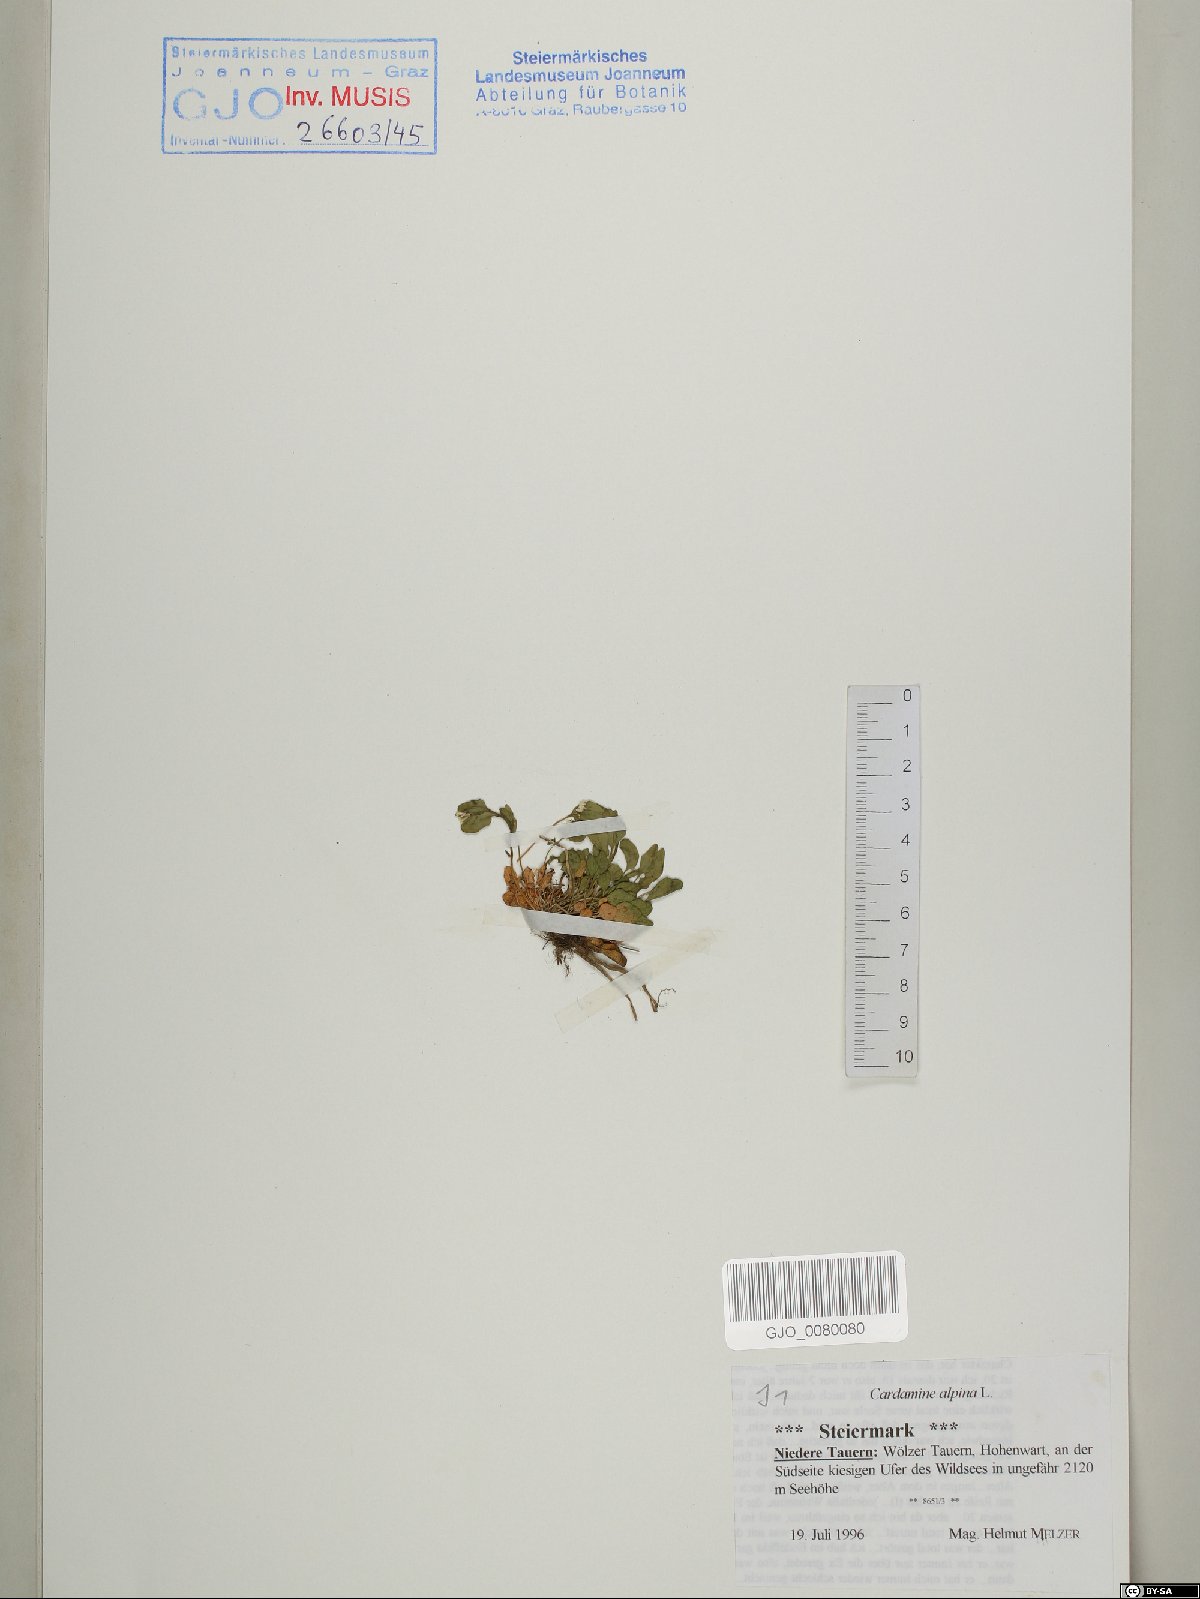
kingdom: Plantae
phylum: Tracheophyta
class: Magnoliopsida
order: Brassicales
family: Brassicaceae
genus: Cardamine
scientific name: Cardamine bellidifolia
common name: Alpine bittercress
